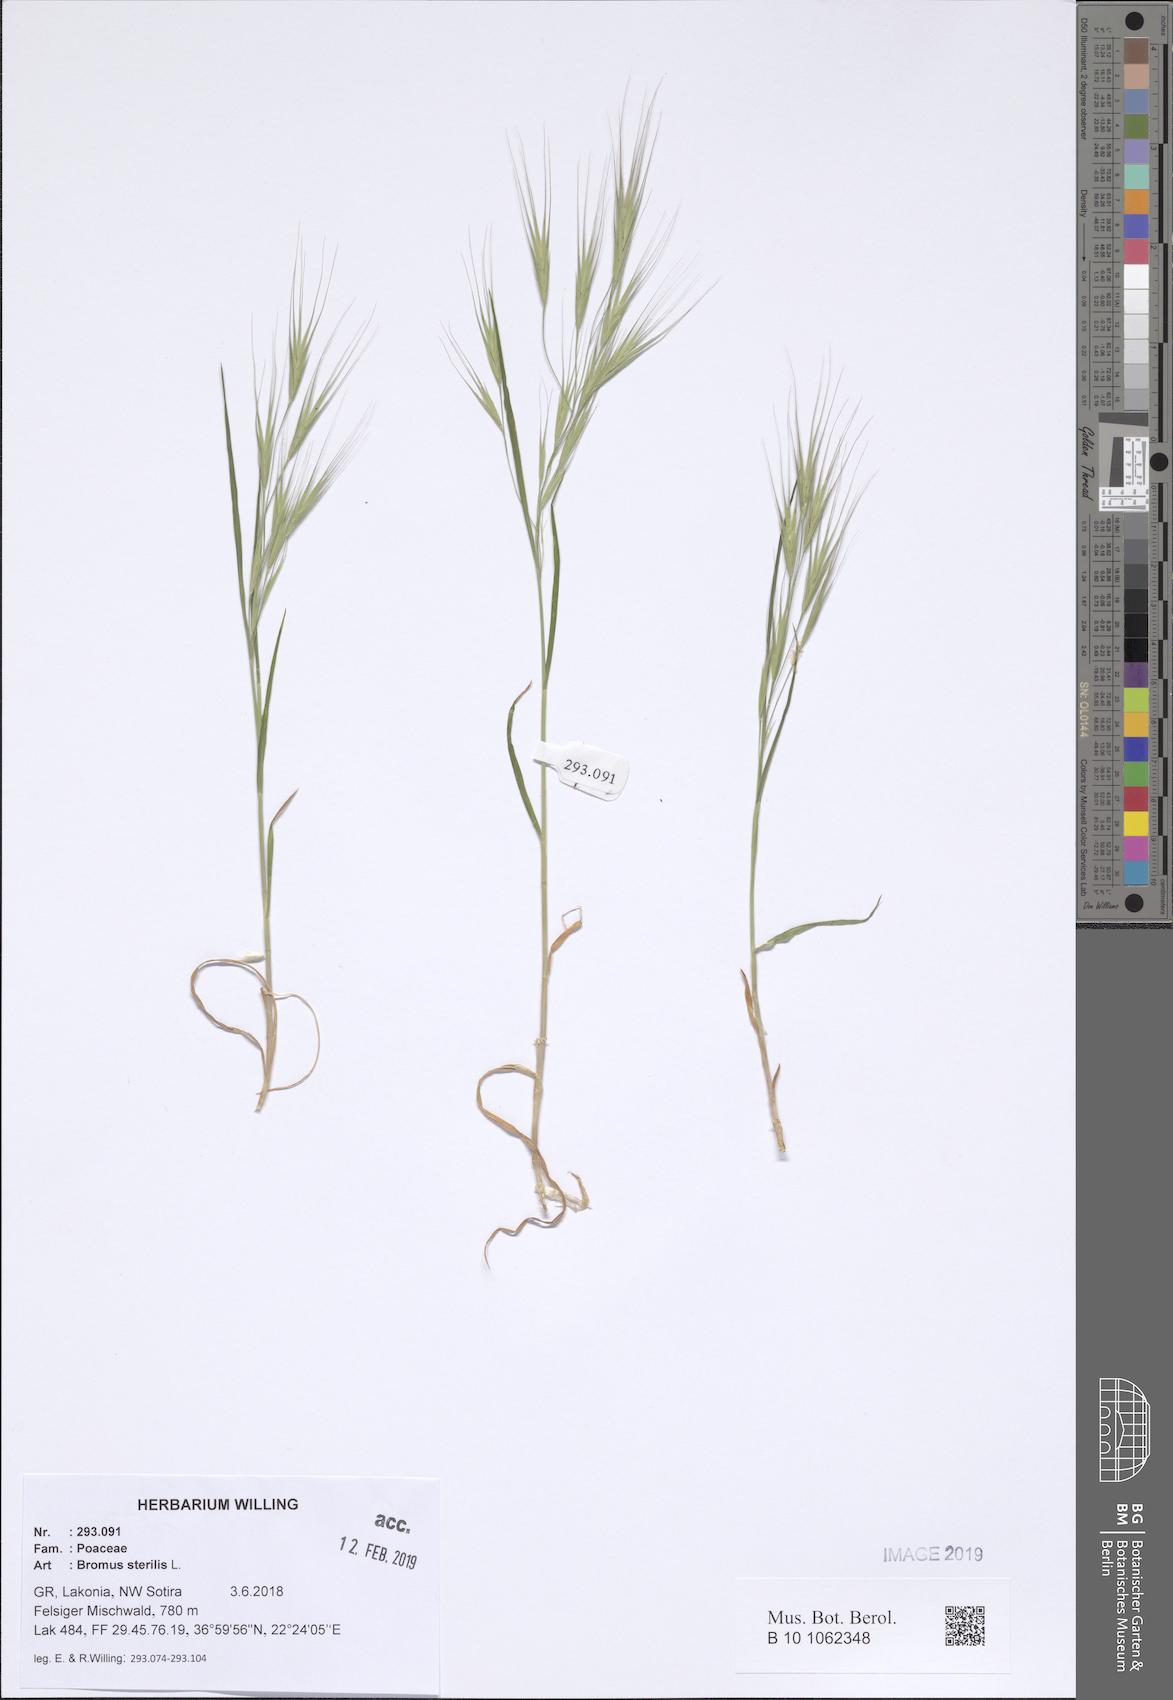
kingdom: Plantae
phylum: Tracheophyta
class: Liliopsida
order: Poales
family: Poaceae
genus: Bromus
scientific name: Bromus sterilis
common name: Poverty brome
